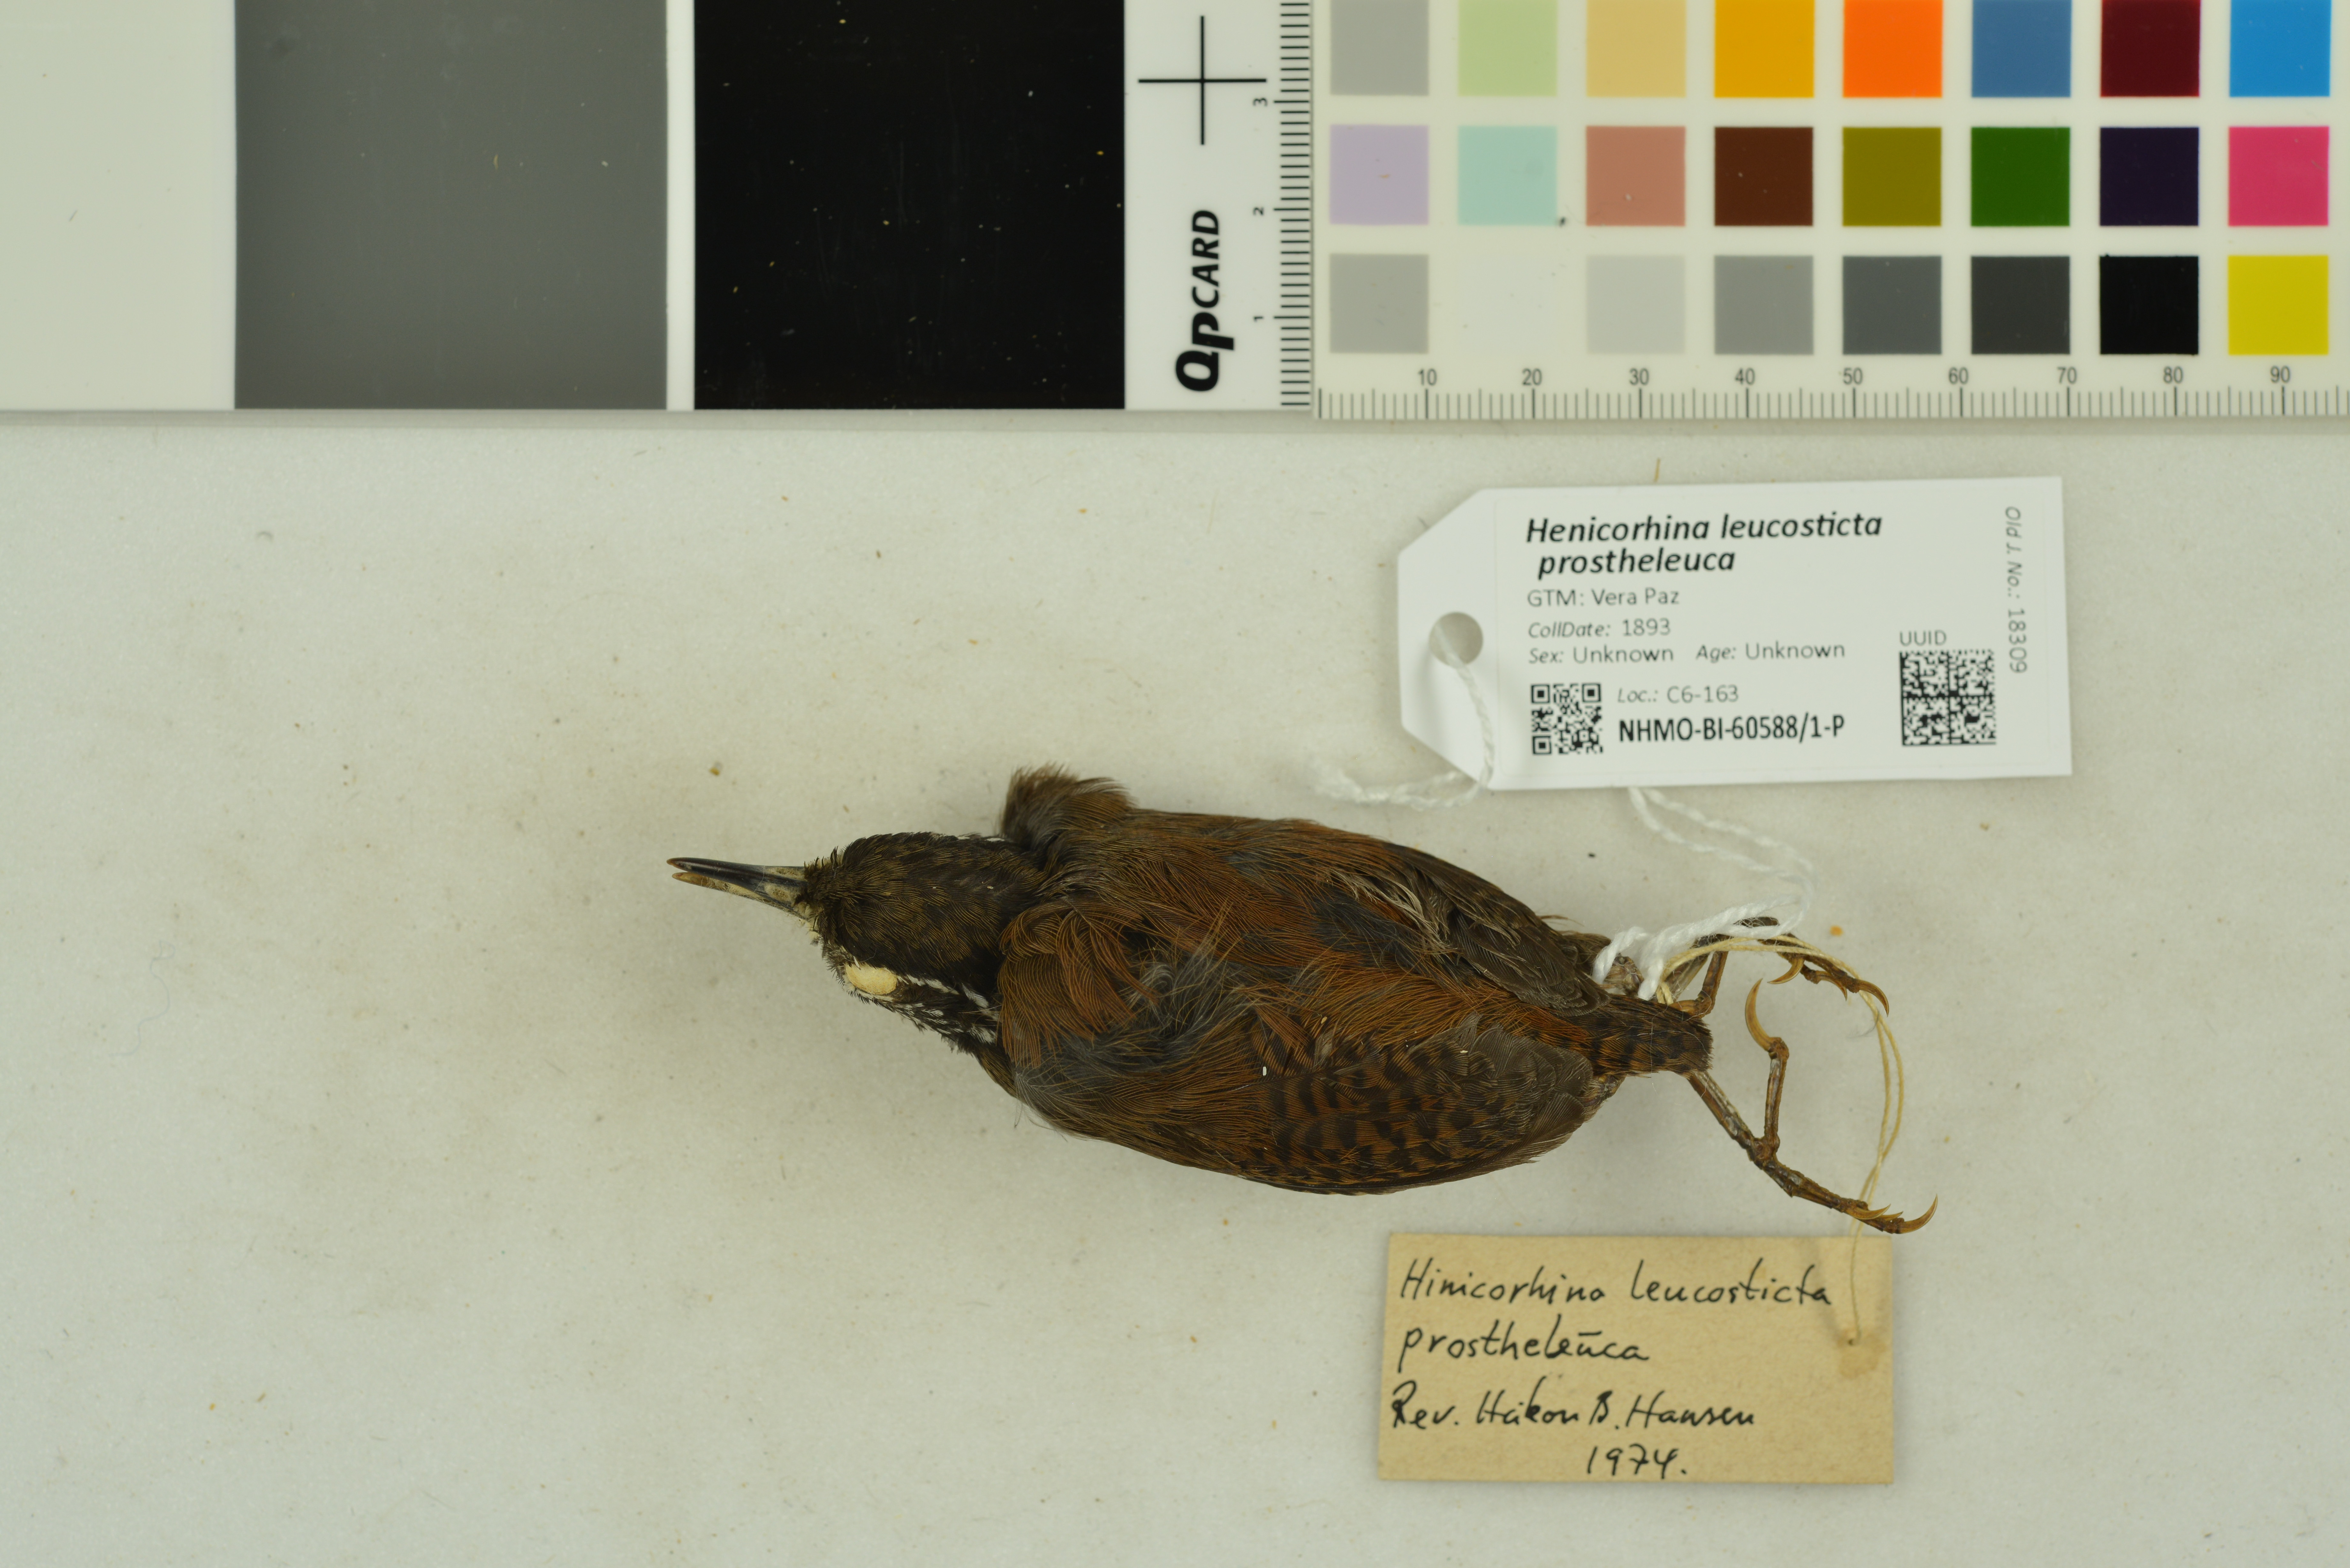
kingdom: Animalia
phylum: Chordata
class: Aves
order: Passeriformes
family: Troglodytidae
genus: Henicorhina
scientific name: Henicorhina leucosticta
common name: White-breasted wood-wren
